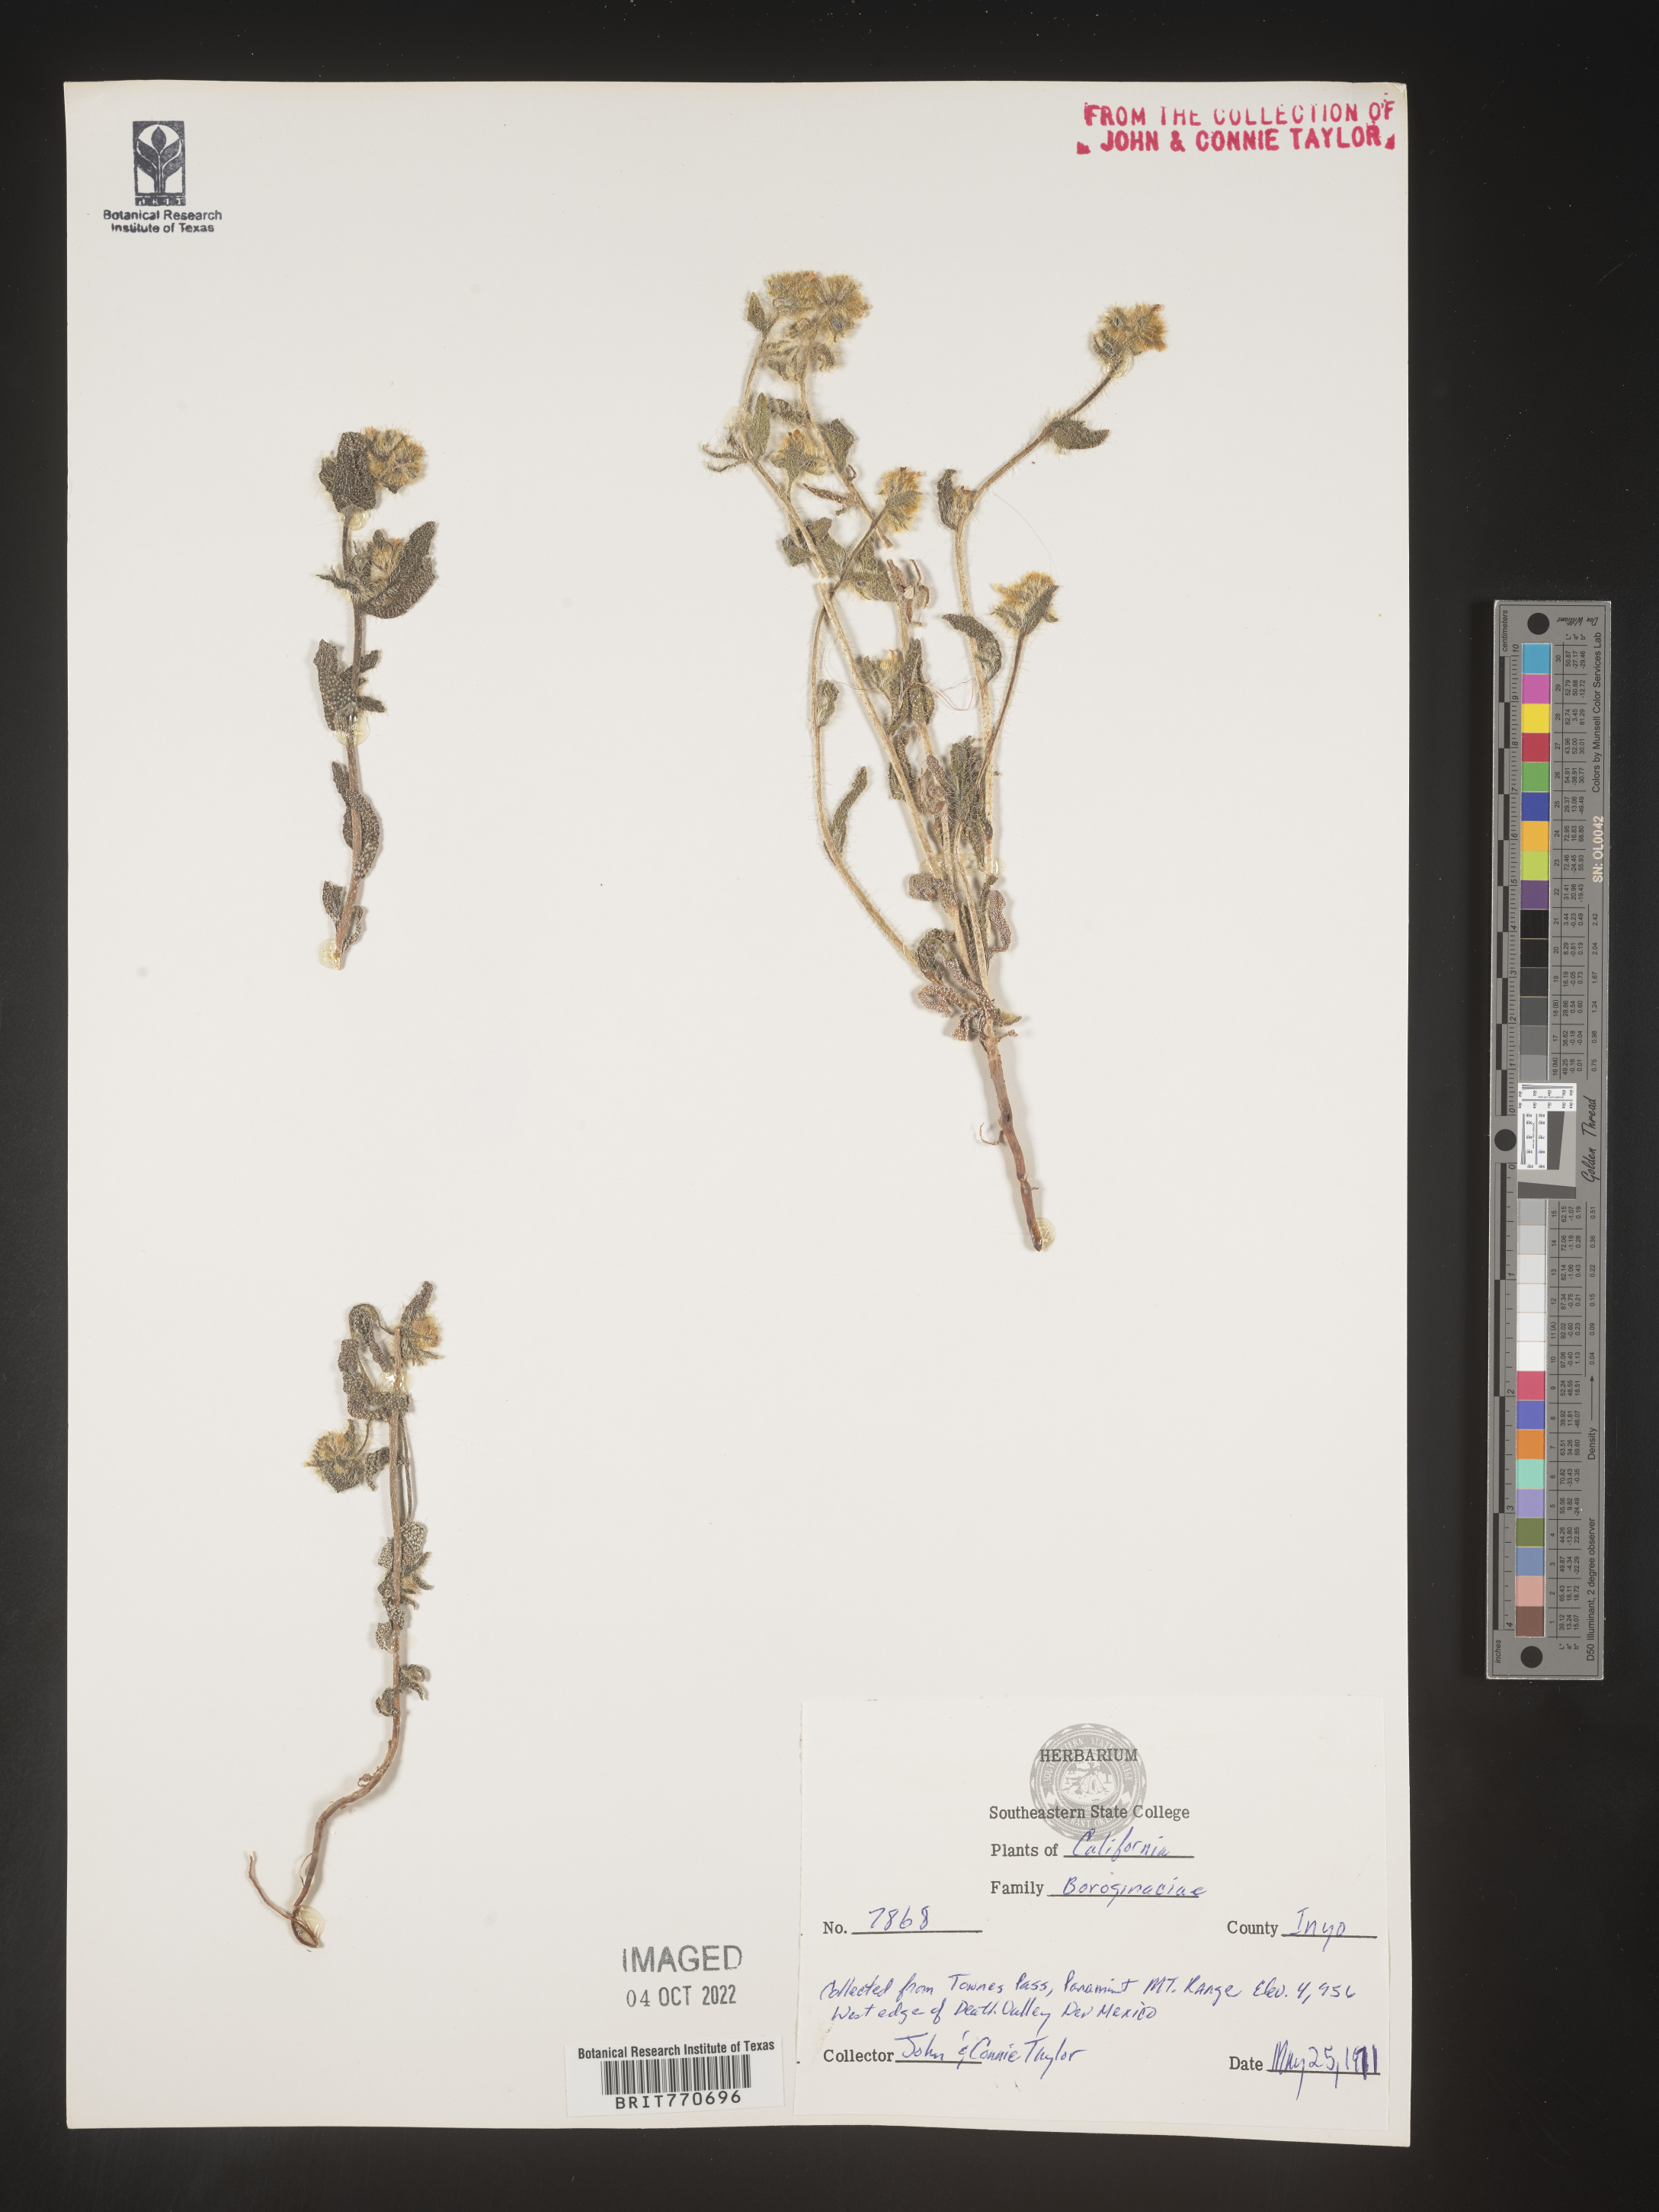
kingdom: Plantae
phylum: Tracheophyta
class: Magnoliopsida
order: Boraginales
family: Boraginaceae
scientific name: Boraginaceae
